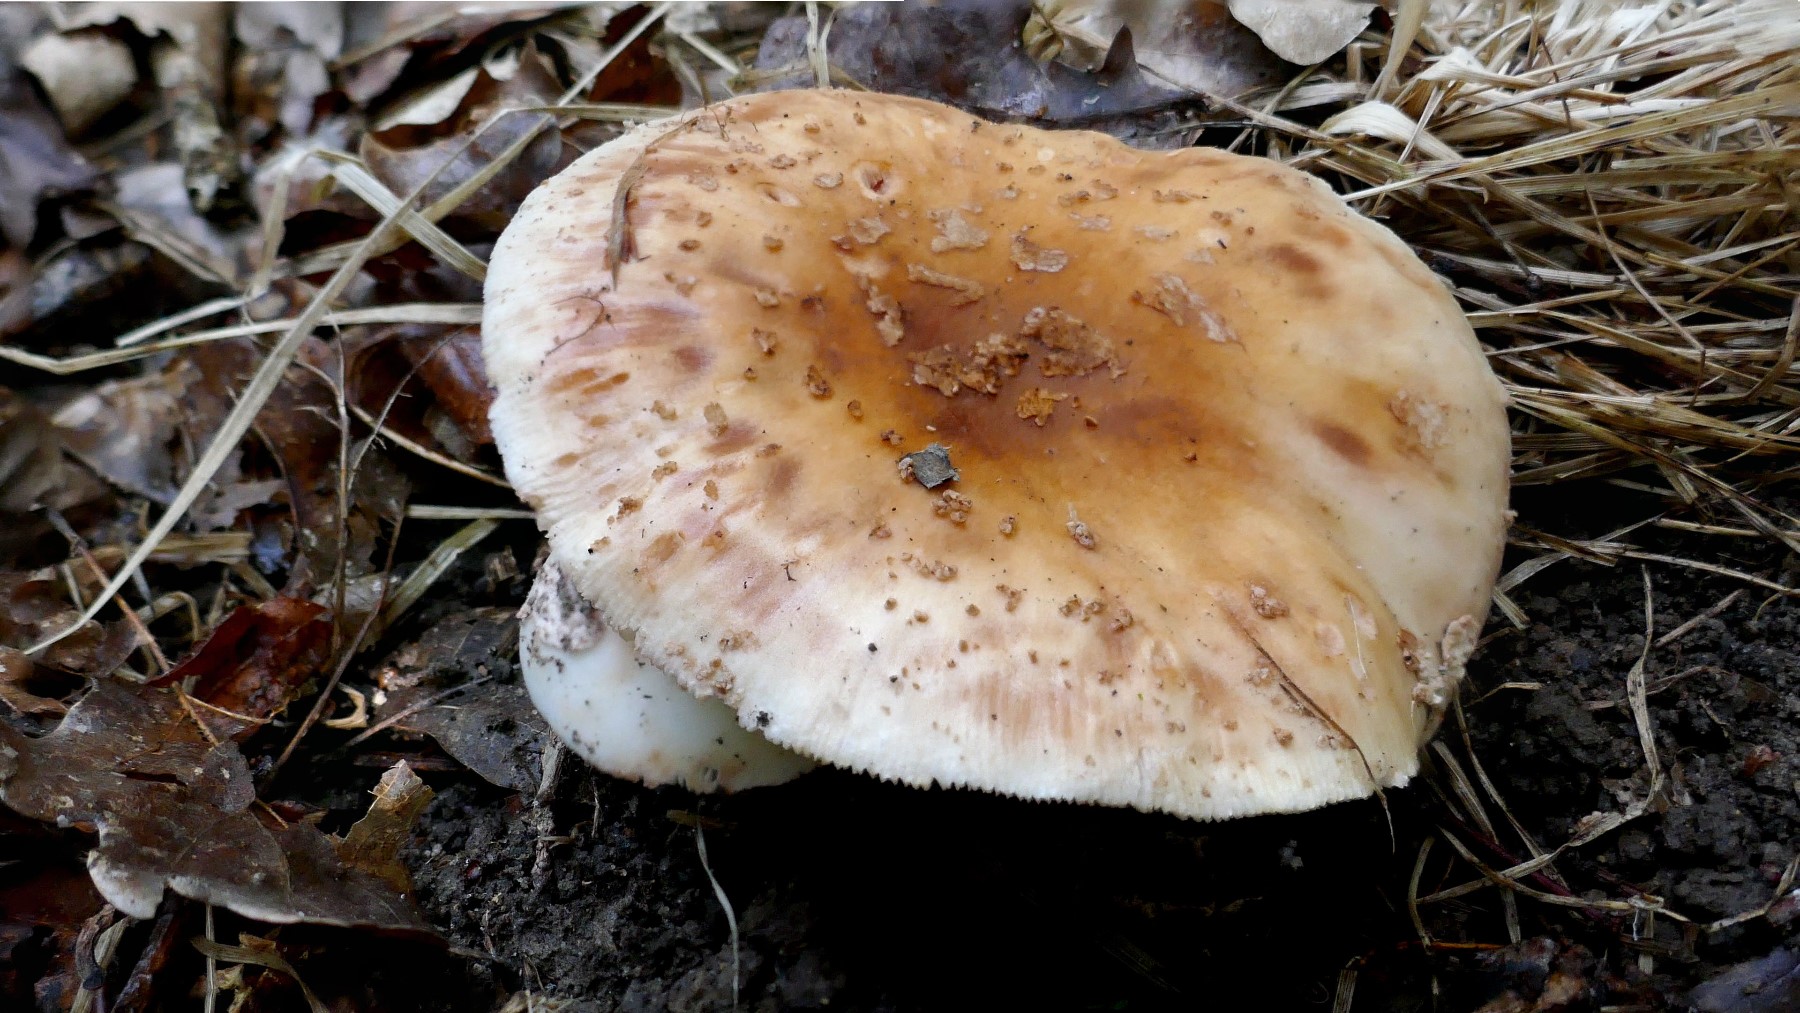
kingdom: Fungi
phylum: Basidiomycota
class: Agaricomycetes
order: Agaricales
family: Amanitaceae
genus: Amanita
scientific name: Amanita rubescens
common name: rødmende fluesvamp
